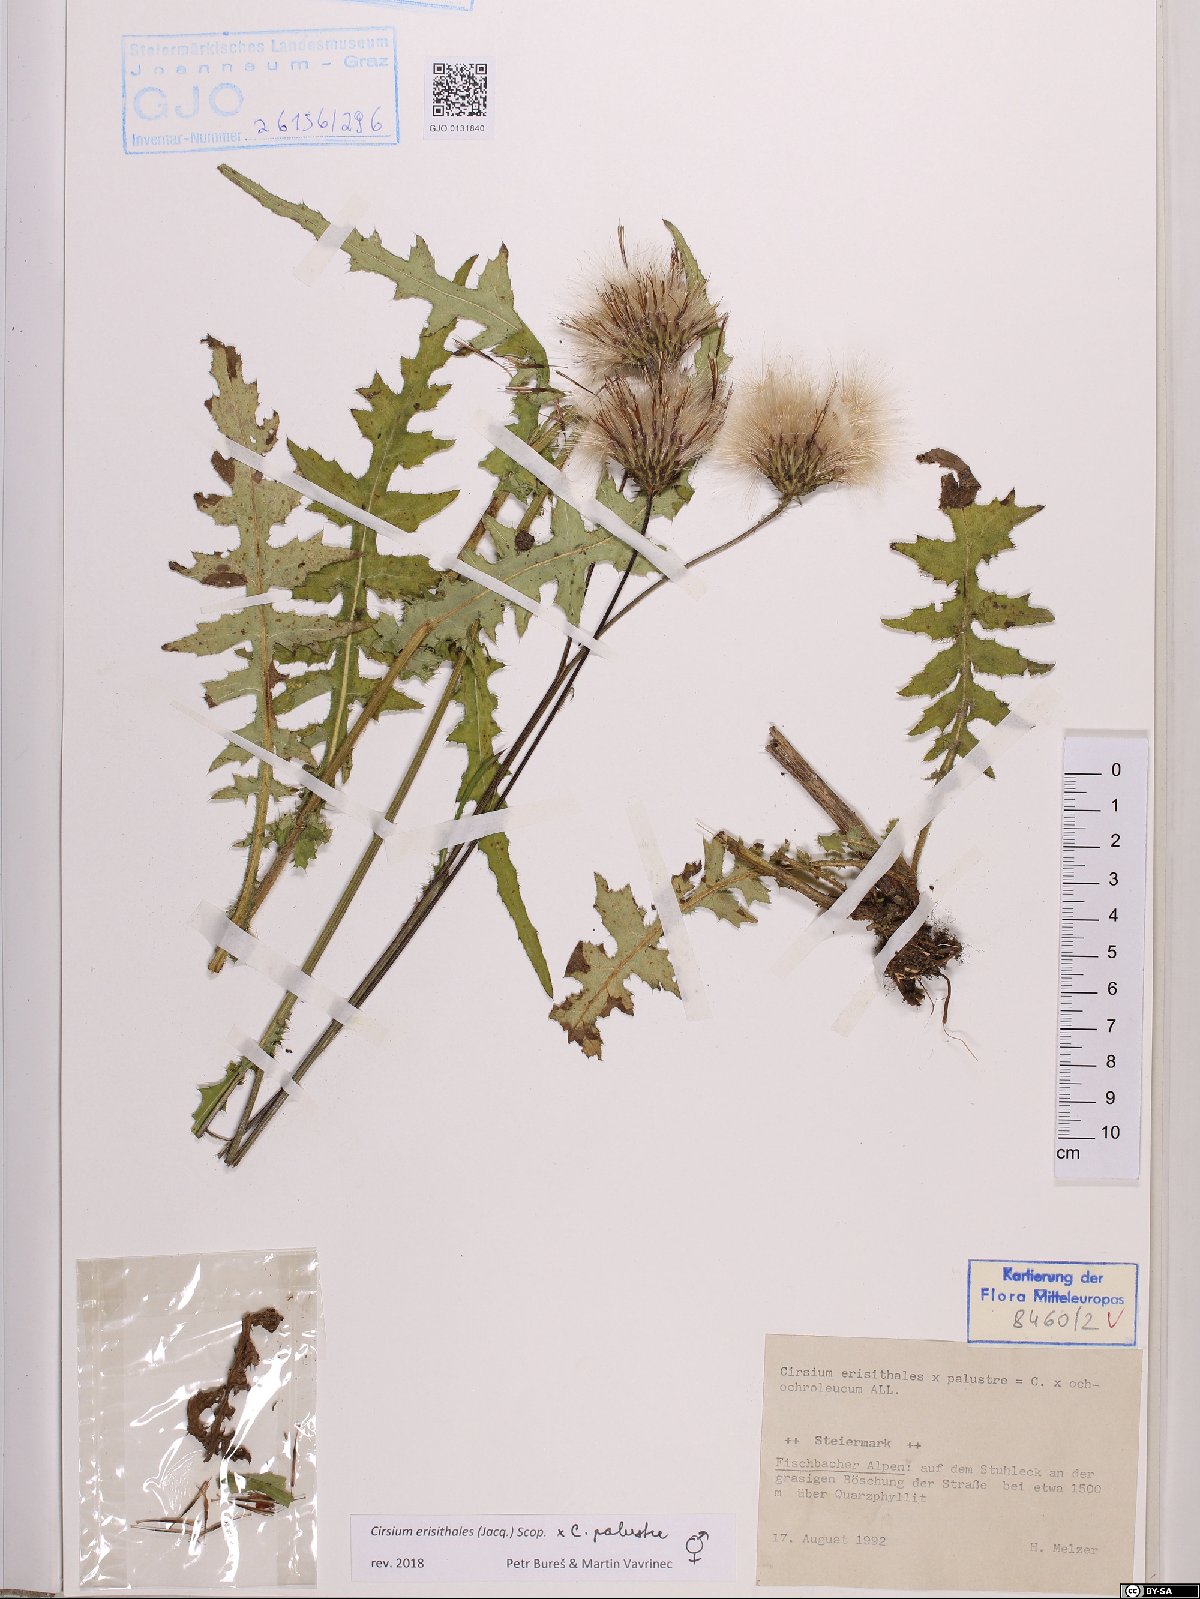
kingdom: Plantae
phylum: Tracheophyta
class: Magnoliopsida
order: Asterales
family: Asteraceae
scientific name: Asteraceae
